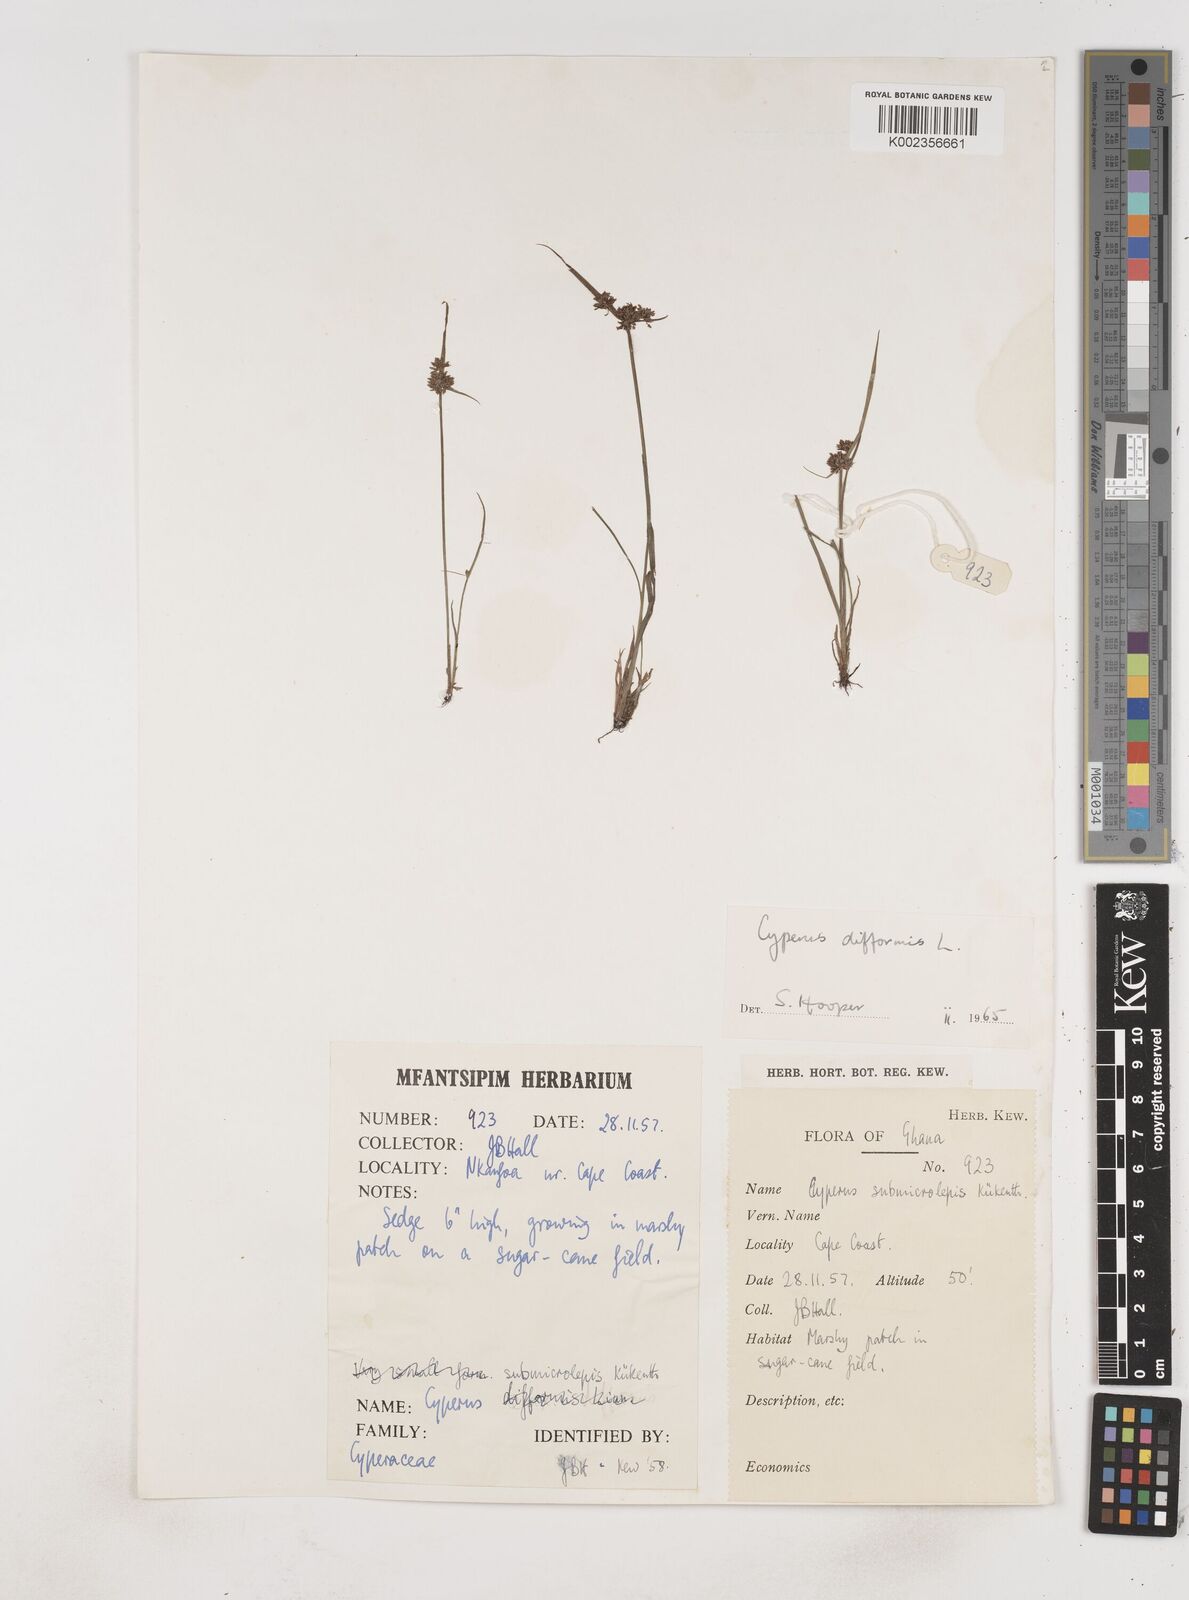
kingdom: Plantae
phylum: Tracheophyta
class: Liliopsida
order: Poales
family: Cyperaceae
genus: Cyperus
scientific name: Cyperus difformis
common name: Variable flatsedge
